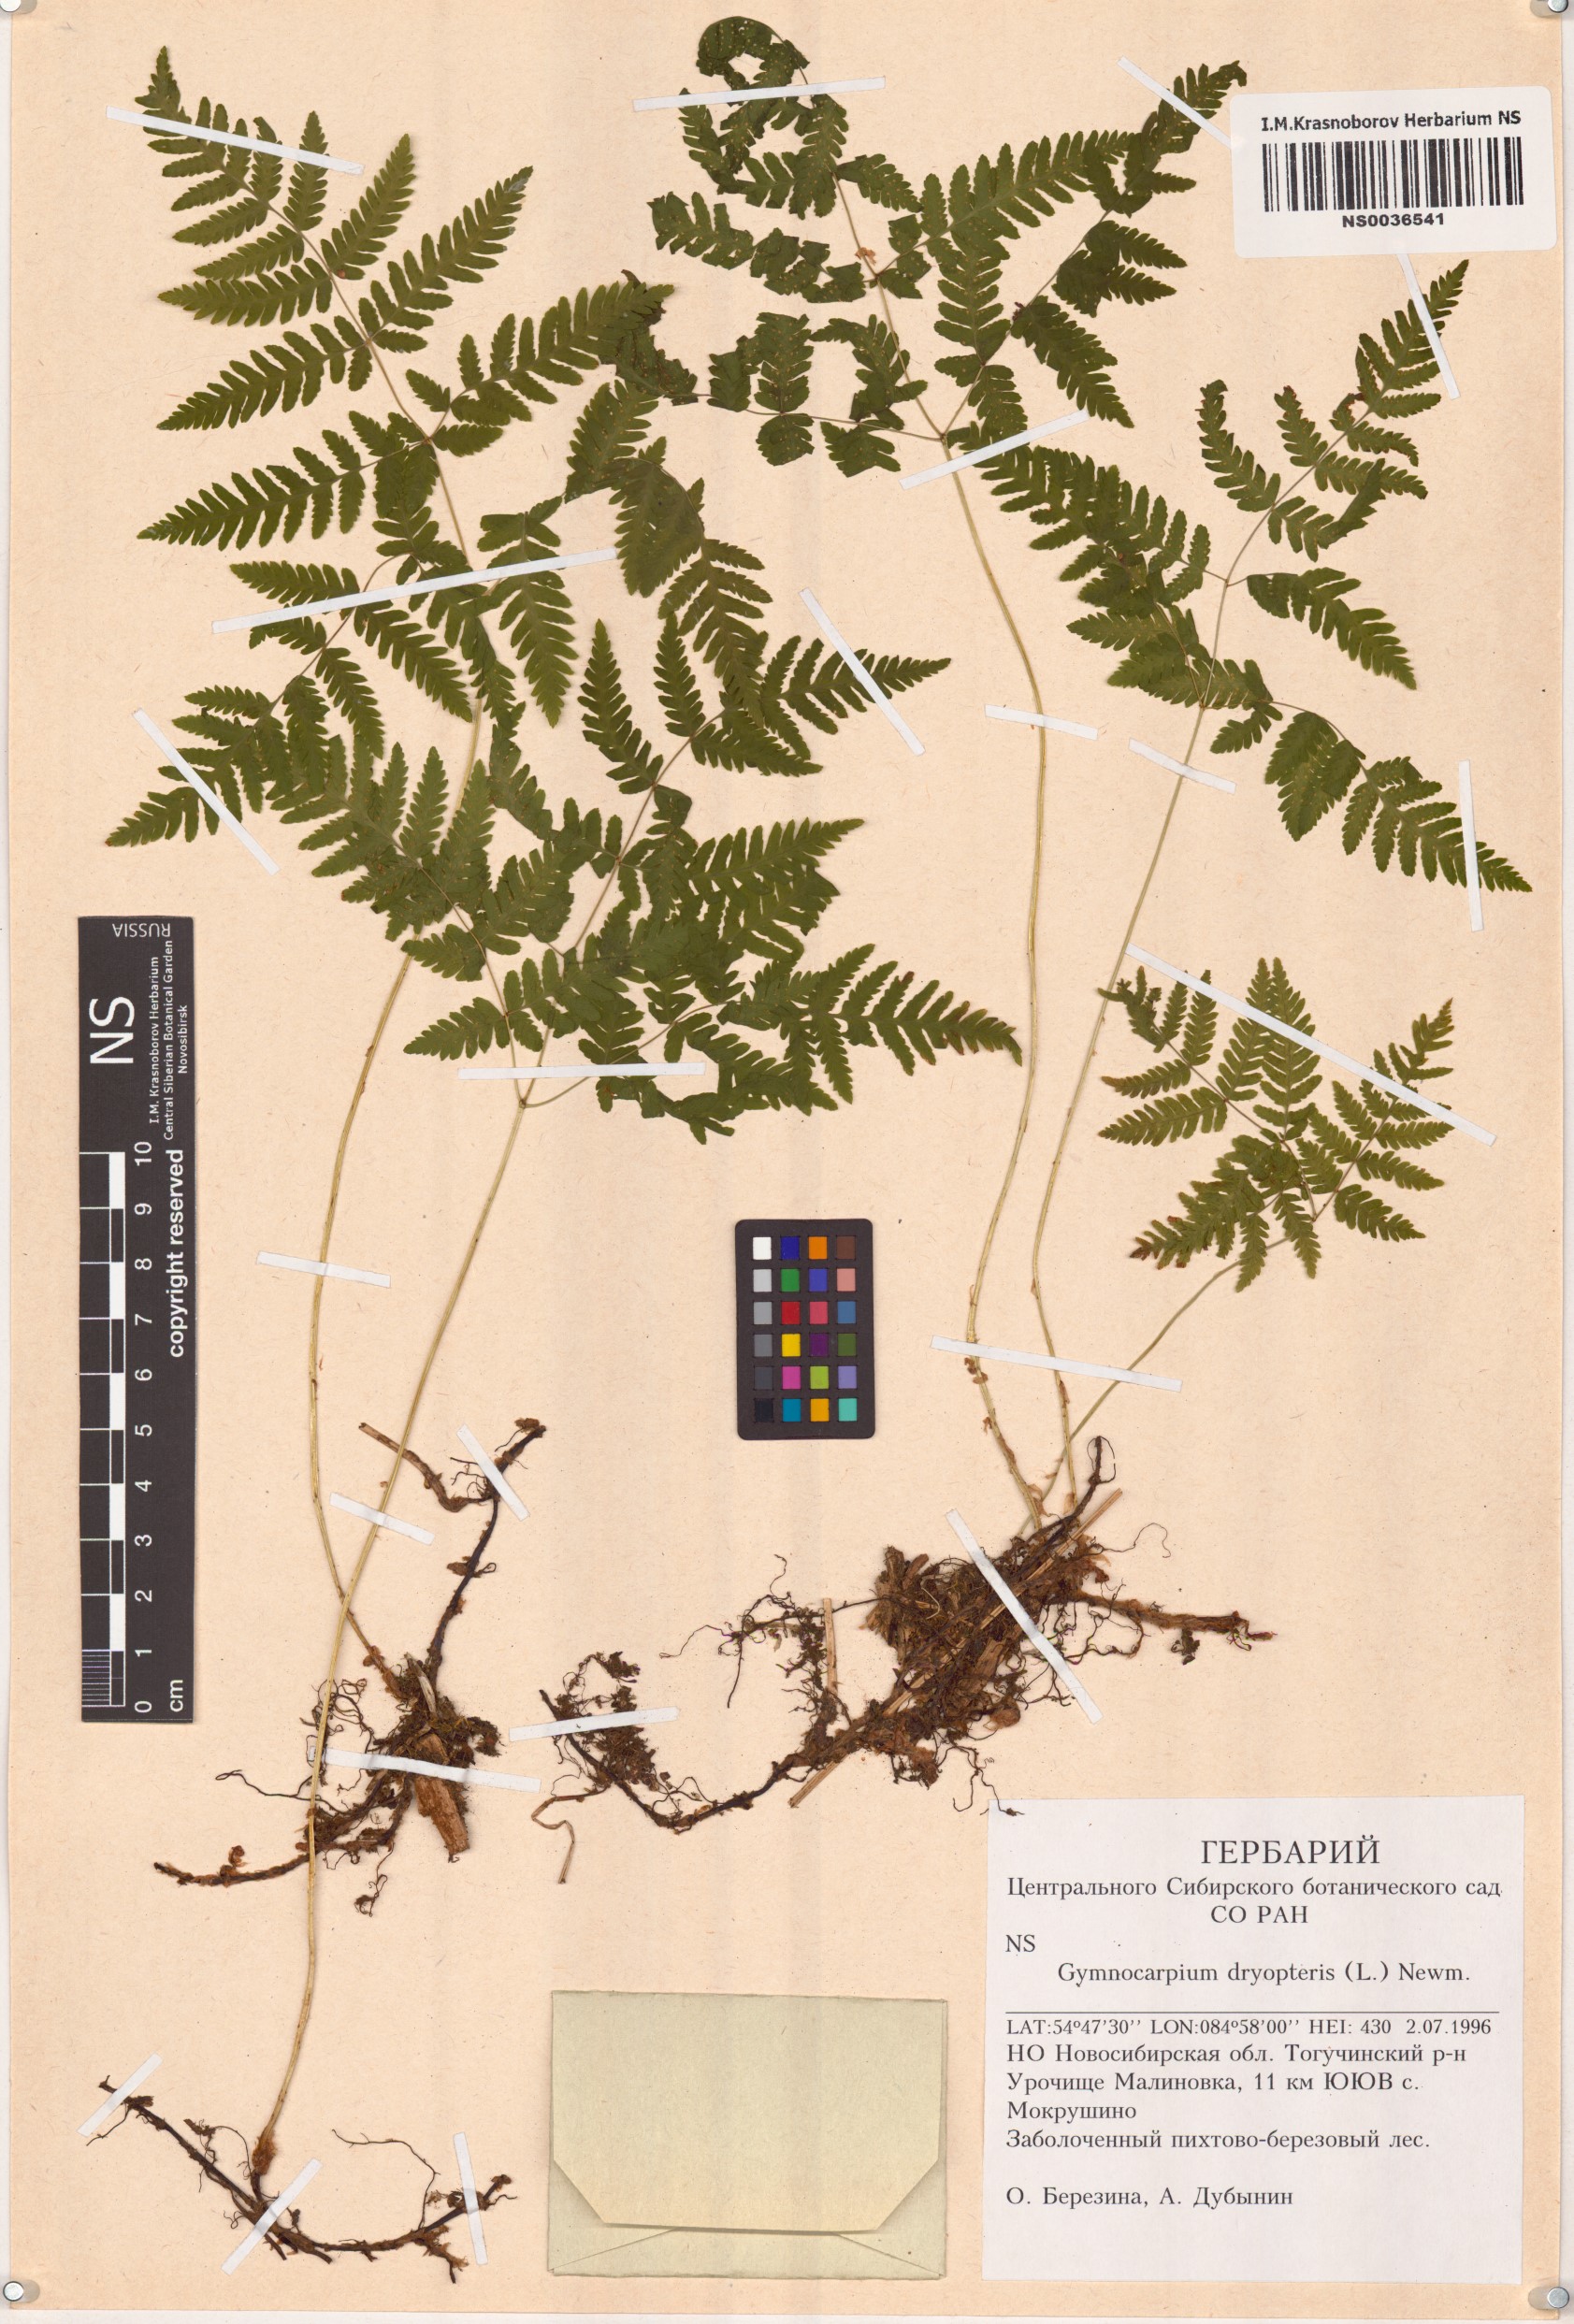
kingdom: Plantae
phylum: Tracheophyta
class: Polypodiopsida
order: Polypodiales
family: Cystopteridaceae
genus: Gymnocarpium
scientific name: Gymnocarpium dryopteris
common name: Oak fern
